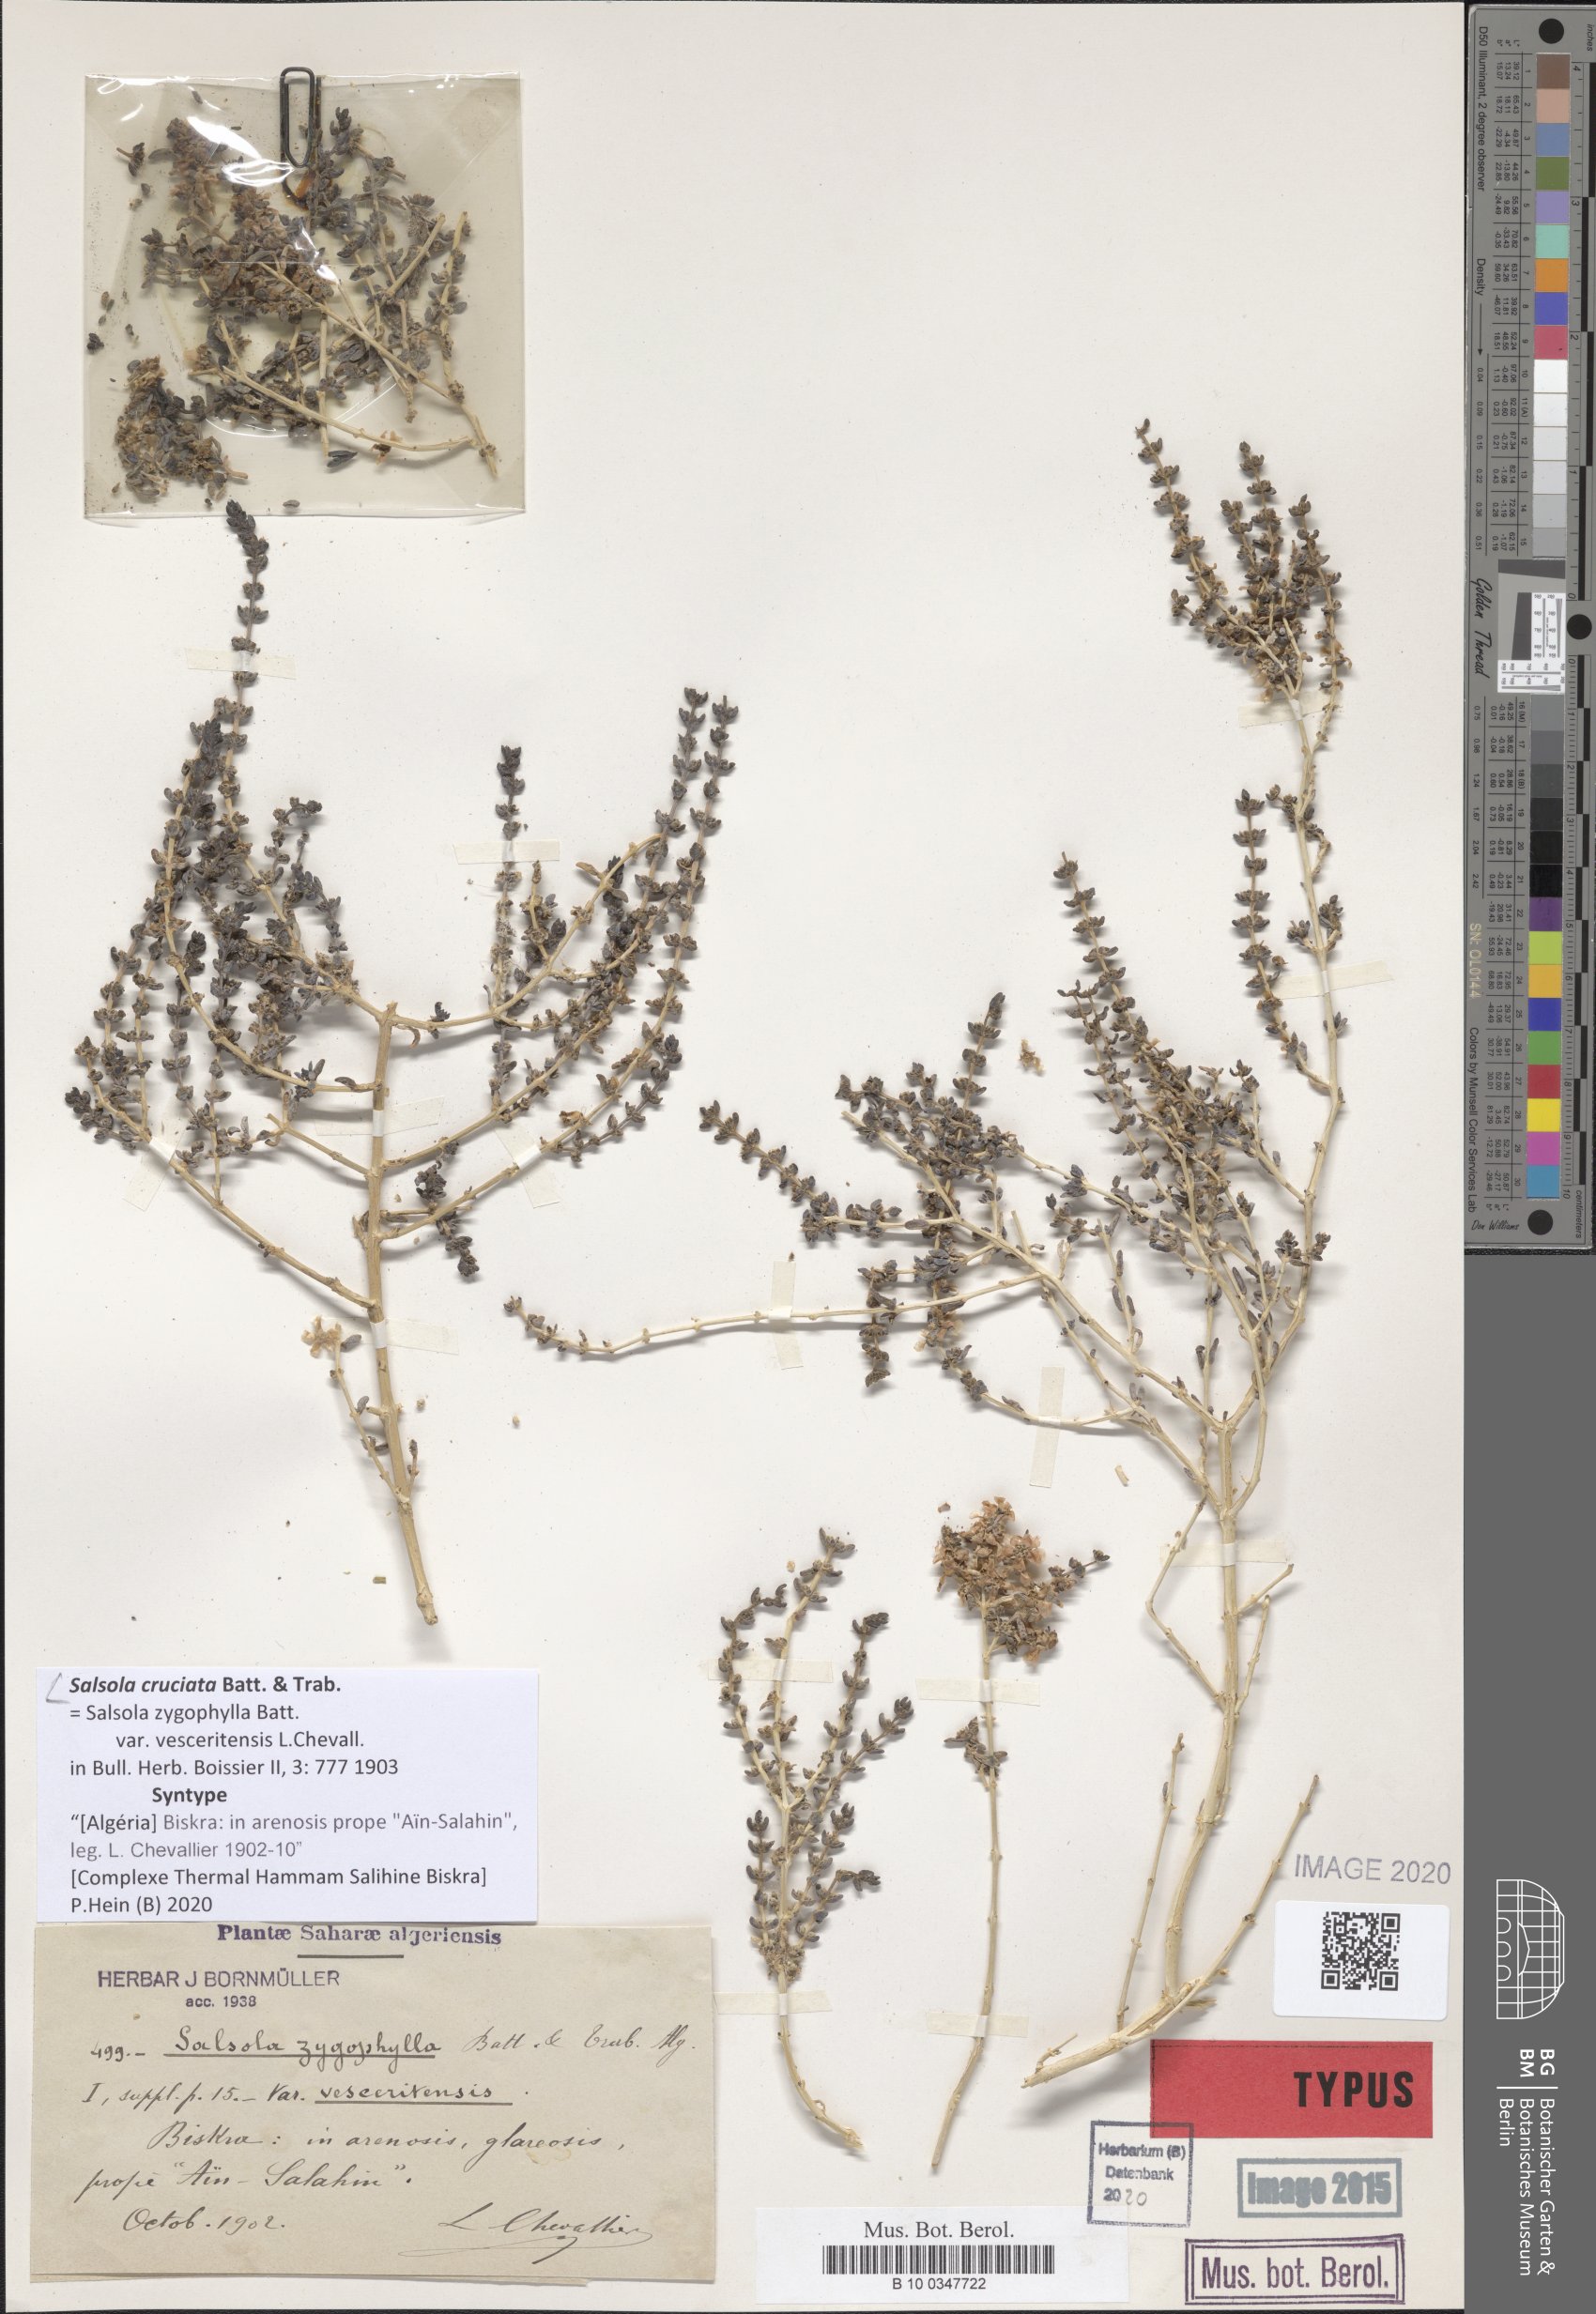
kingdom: Plantae
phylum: Tracheophyta
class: Magnoliopsida
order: Caryophyllales
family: Amaranthaceae
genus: Salsola
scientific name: Salsola cruciata
